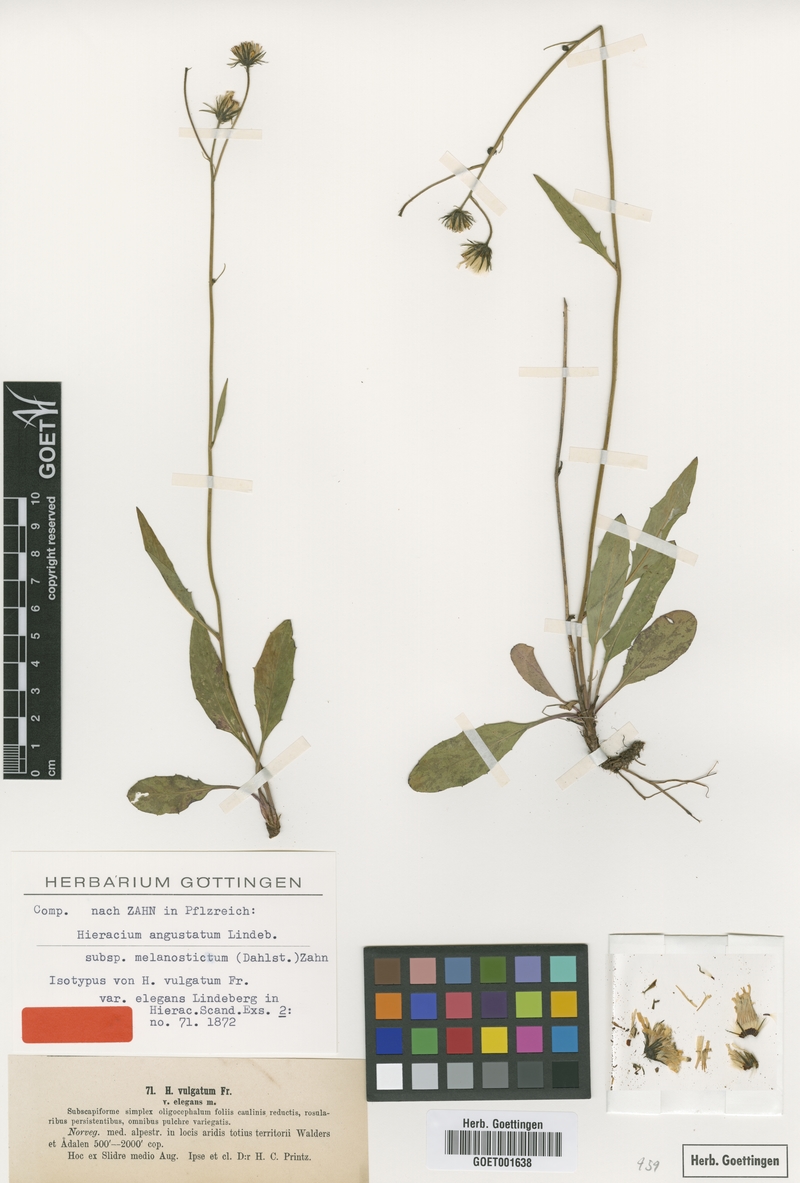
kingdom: Plantae
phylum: Tracheophyta
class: Magnoliopsida
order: Asterales
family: Asteraceae
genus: Hieracium
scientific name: Hieracium subnaevosum
